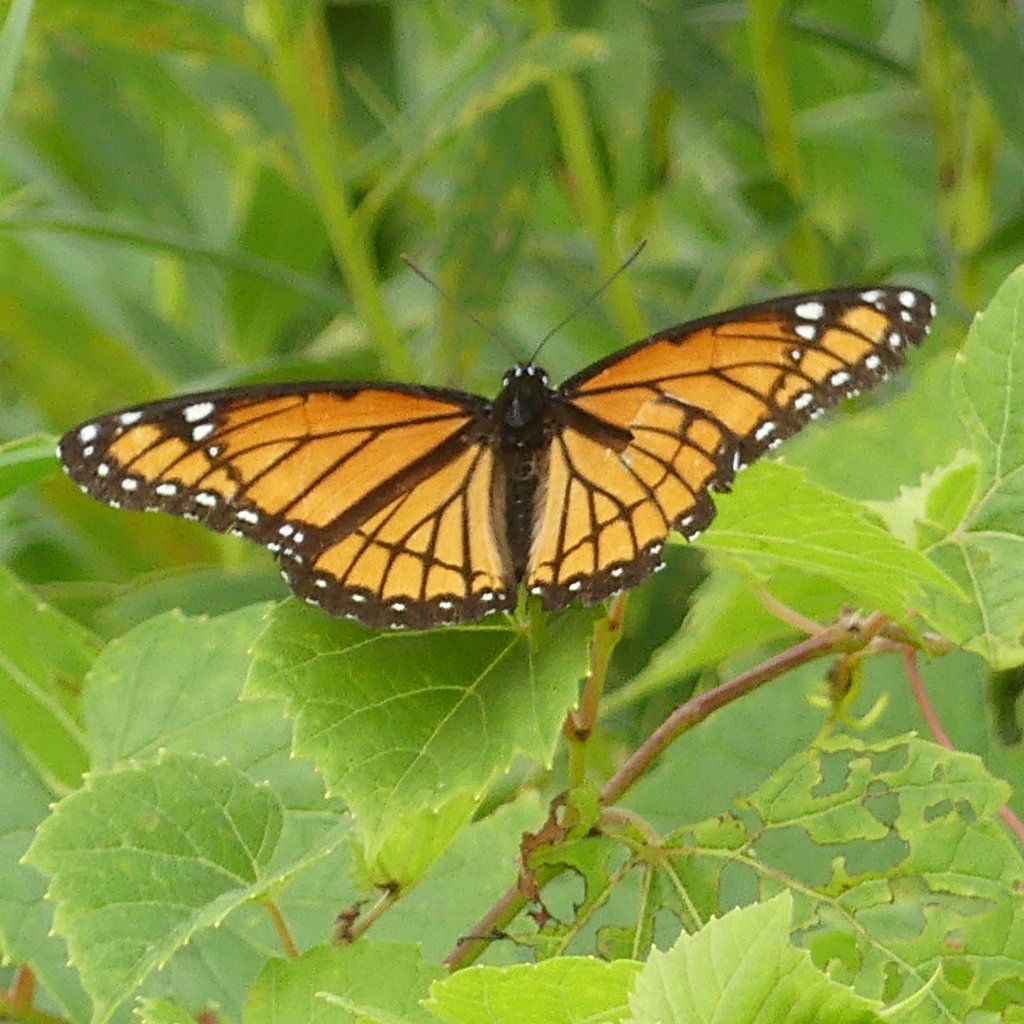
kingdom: Animalia
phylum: Arthropoda
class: Insecta
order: Lepidoptera
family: Nymphalidae
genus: Limenitis
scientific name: Limenitis archippus
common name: Viceroy
